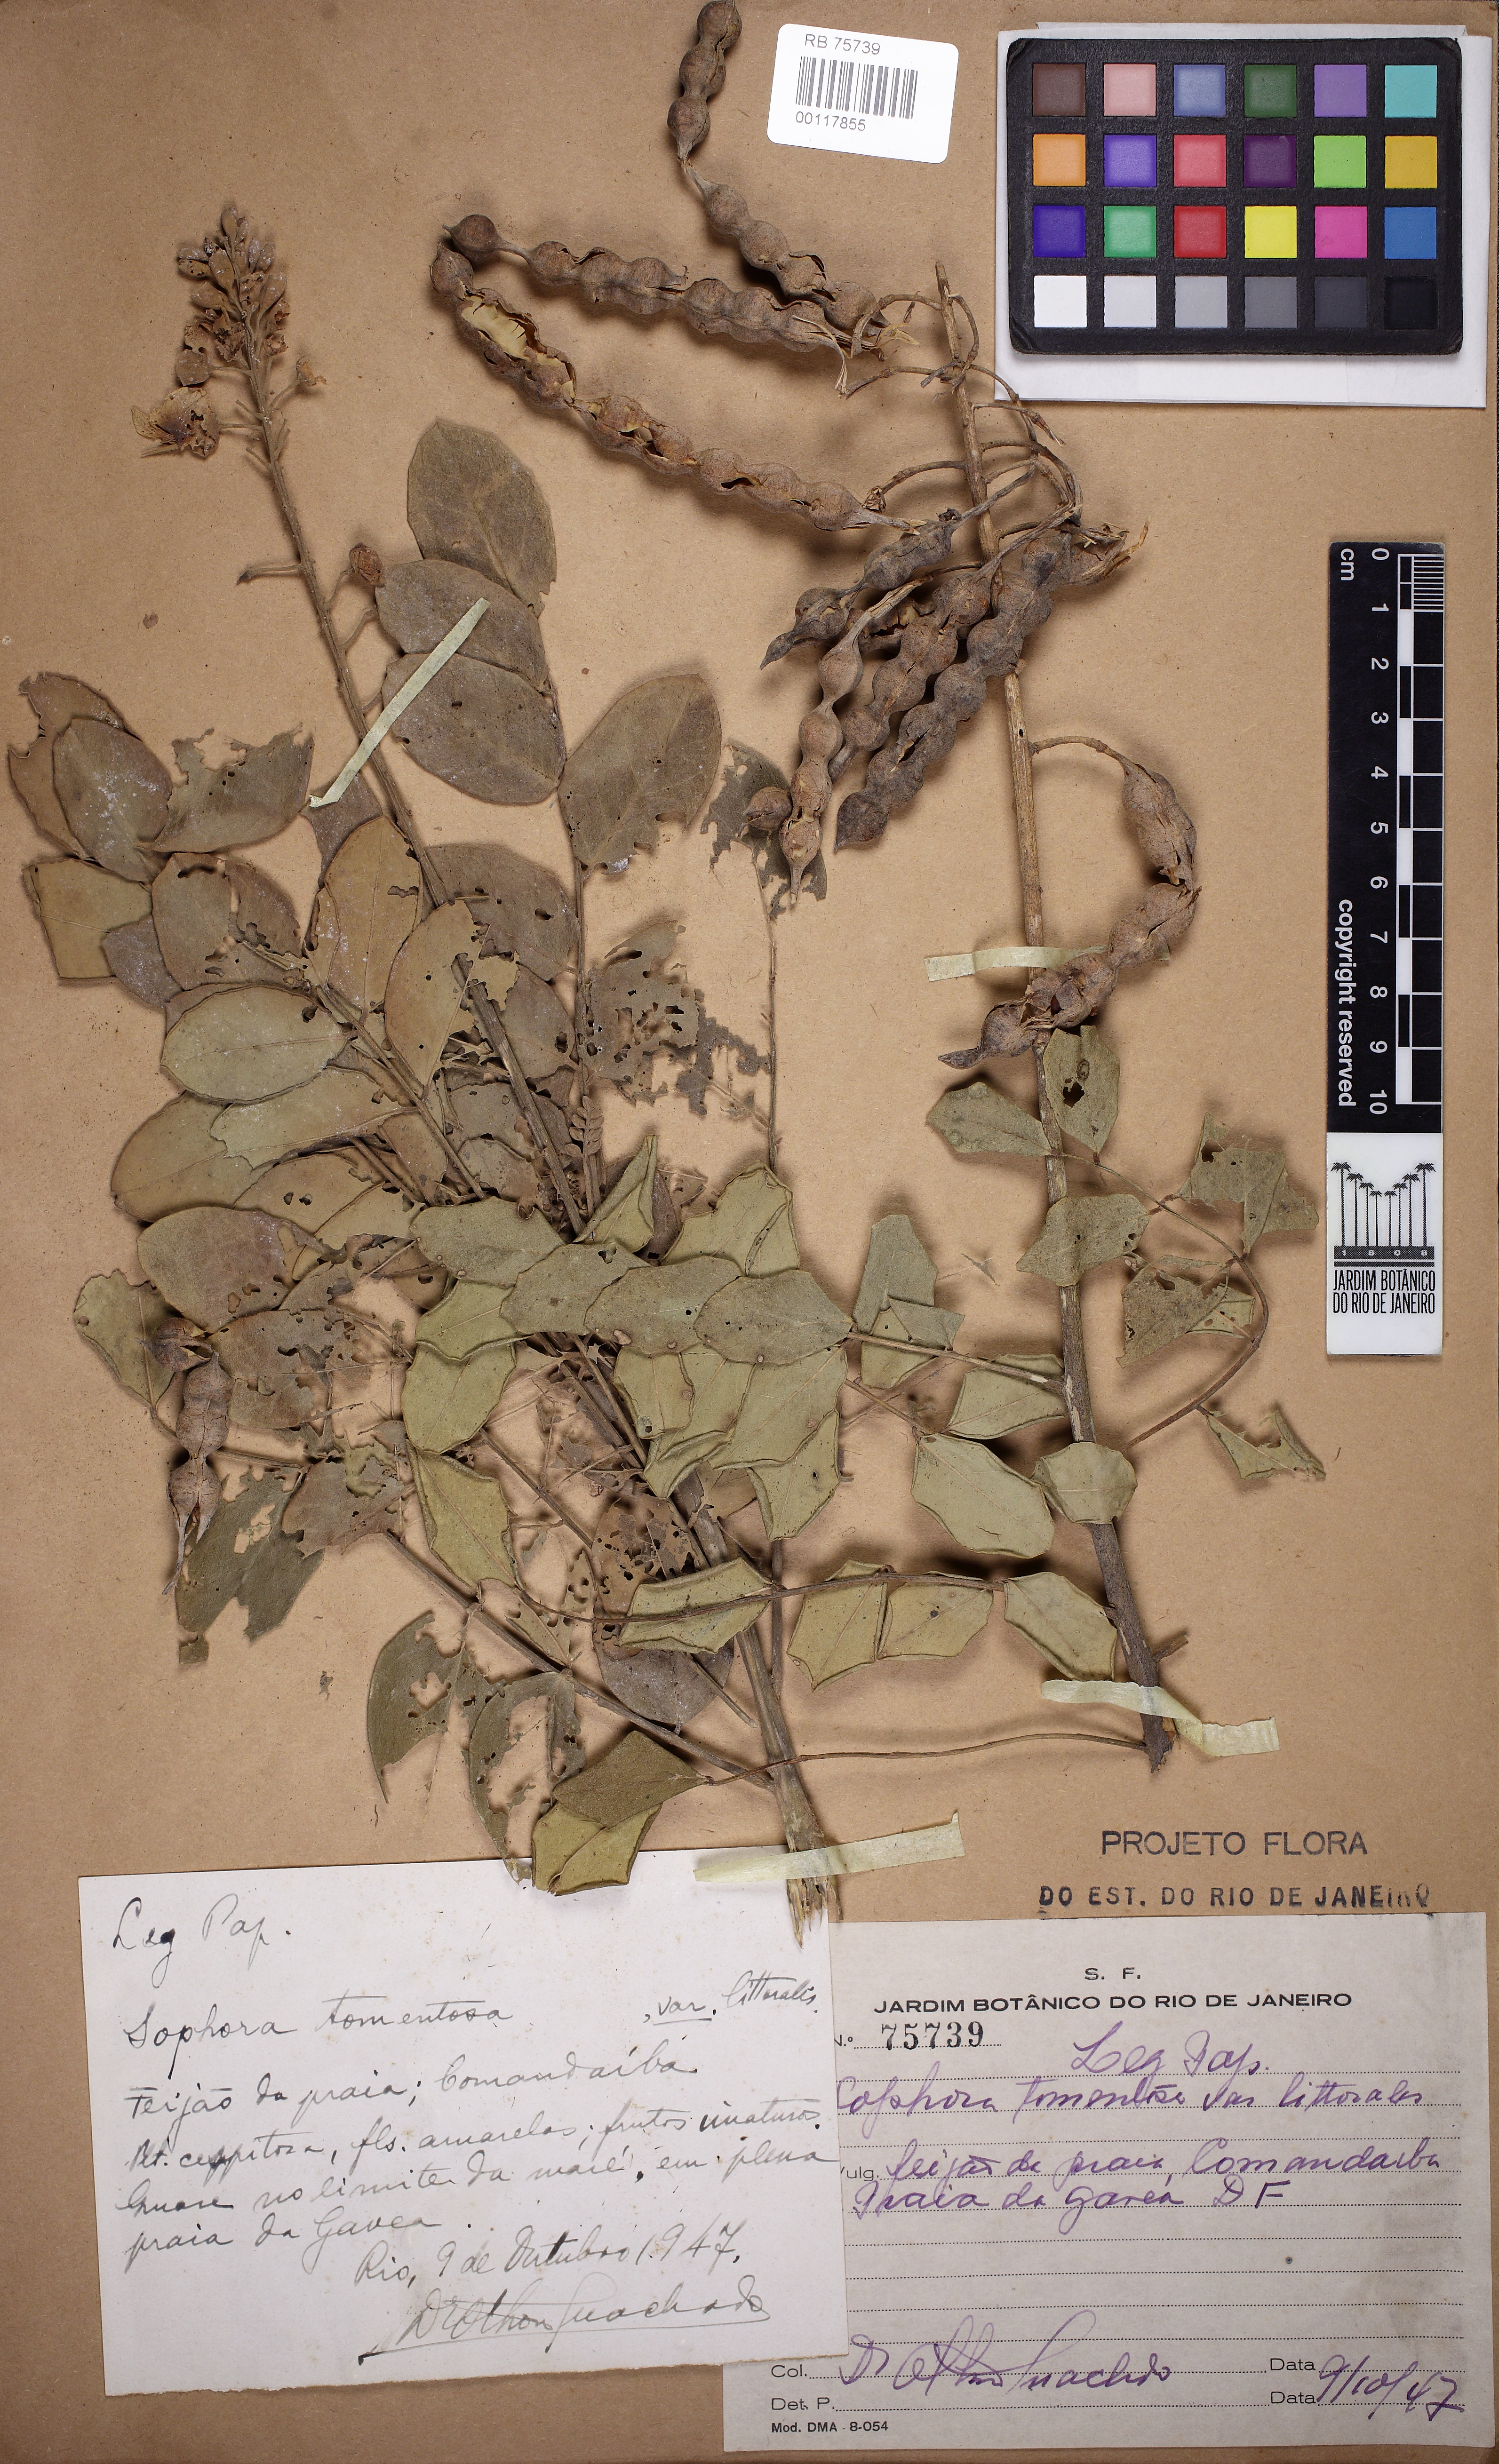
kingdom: Plantae
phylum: Tracheophyta
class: Magnoliopsida
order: Fabales
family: Fabaceae
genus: Sophora
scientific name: Sophora tomentosa
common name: Yellow necklacepod
